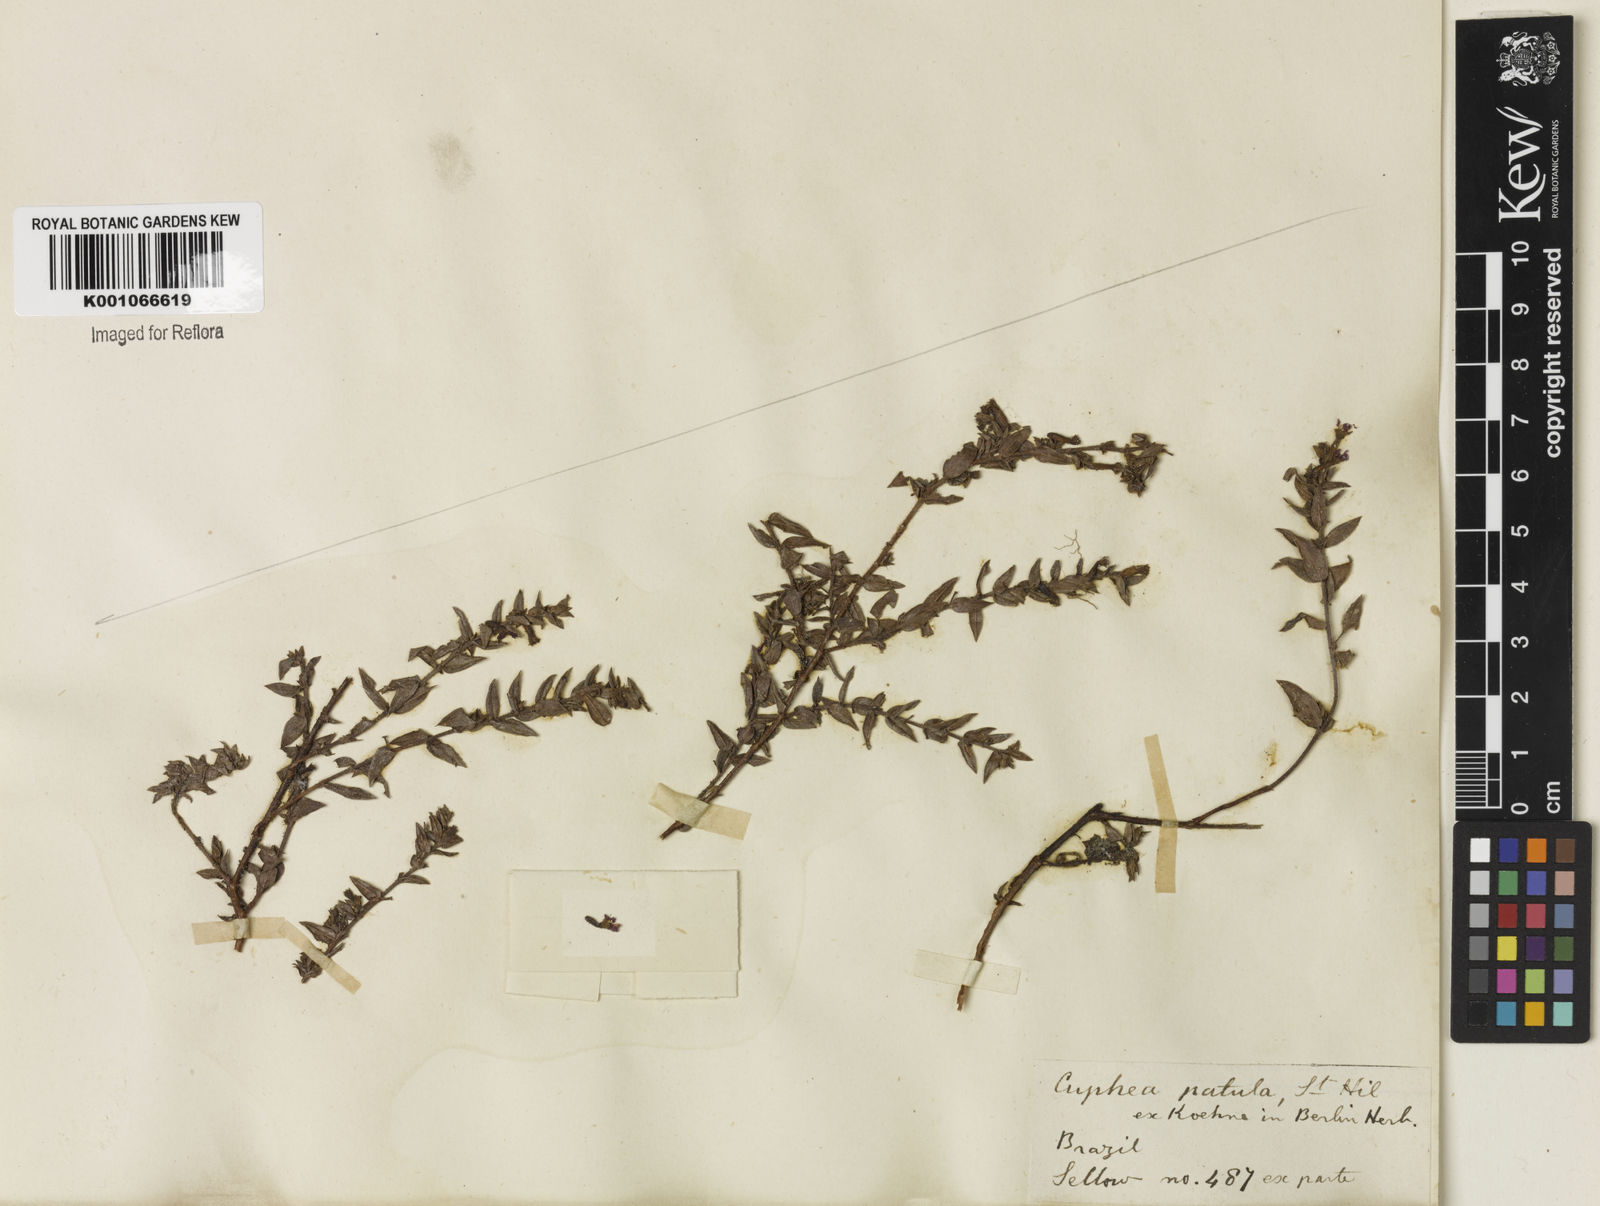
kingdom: Plantae
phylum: Tracheophyta
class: Magnoliopsida
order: Myrtales
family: Lythraceae
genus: Cuphea
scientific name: Cuphea patula
